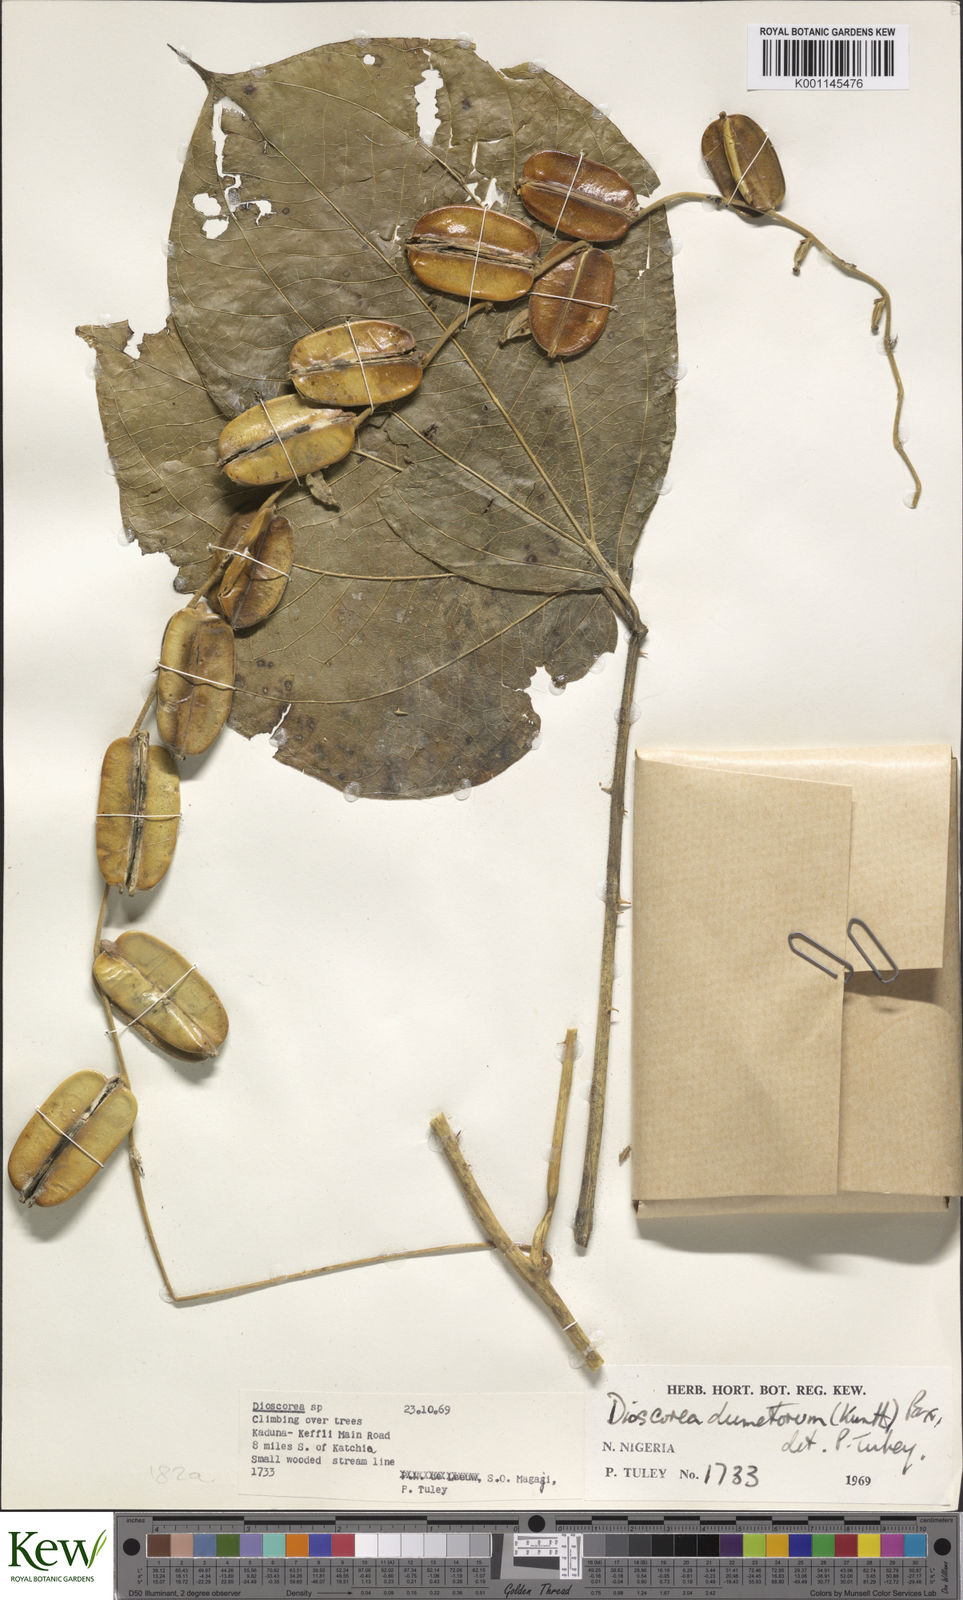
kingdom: Plantae
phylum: Tracheophyta
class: Liliopsida
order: Dioscoreales
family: Dioscoreaceae
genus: Dioscorea
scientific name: Dioscorea dumetorum
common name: African bitter yam
